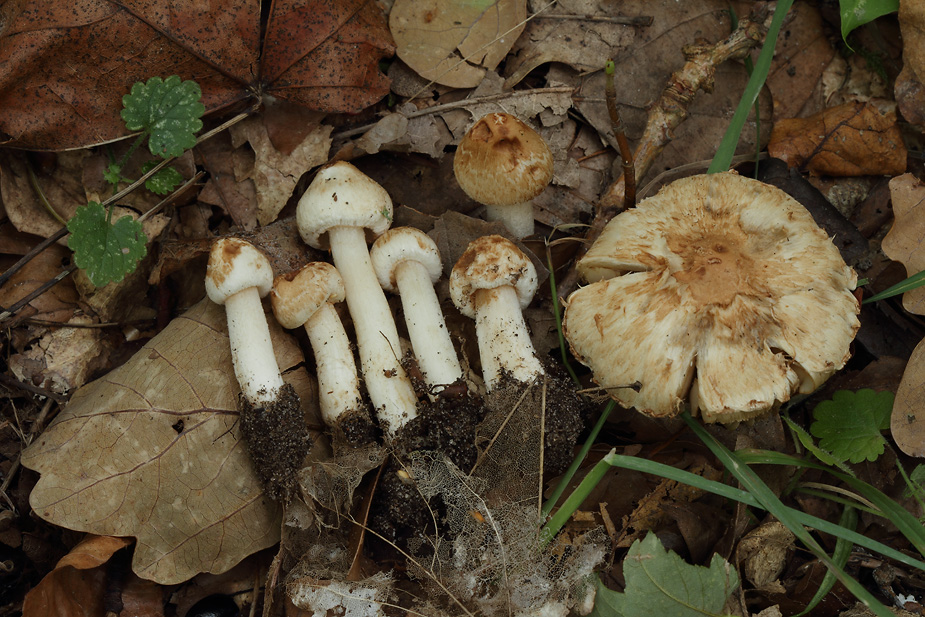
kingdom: Fungi
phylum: Basidiomycota
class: Agaricomycetes
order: Agaricales
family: Inocybaceae
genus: Inocybe
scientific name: Inocybe appendiculata
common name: tandet trævlhat
